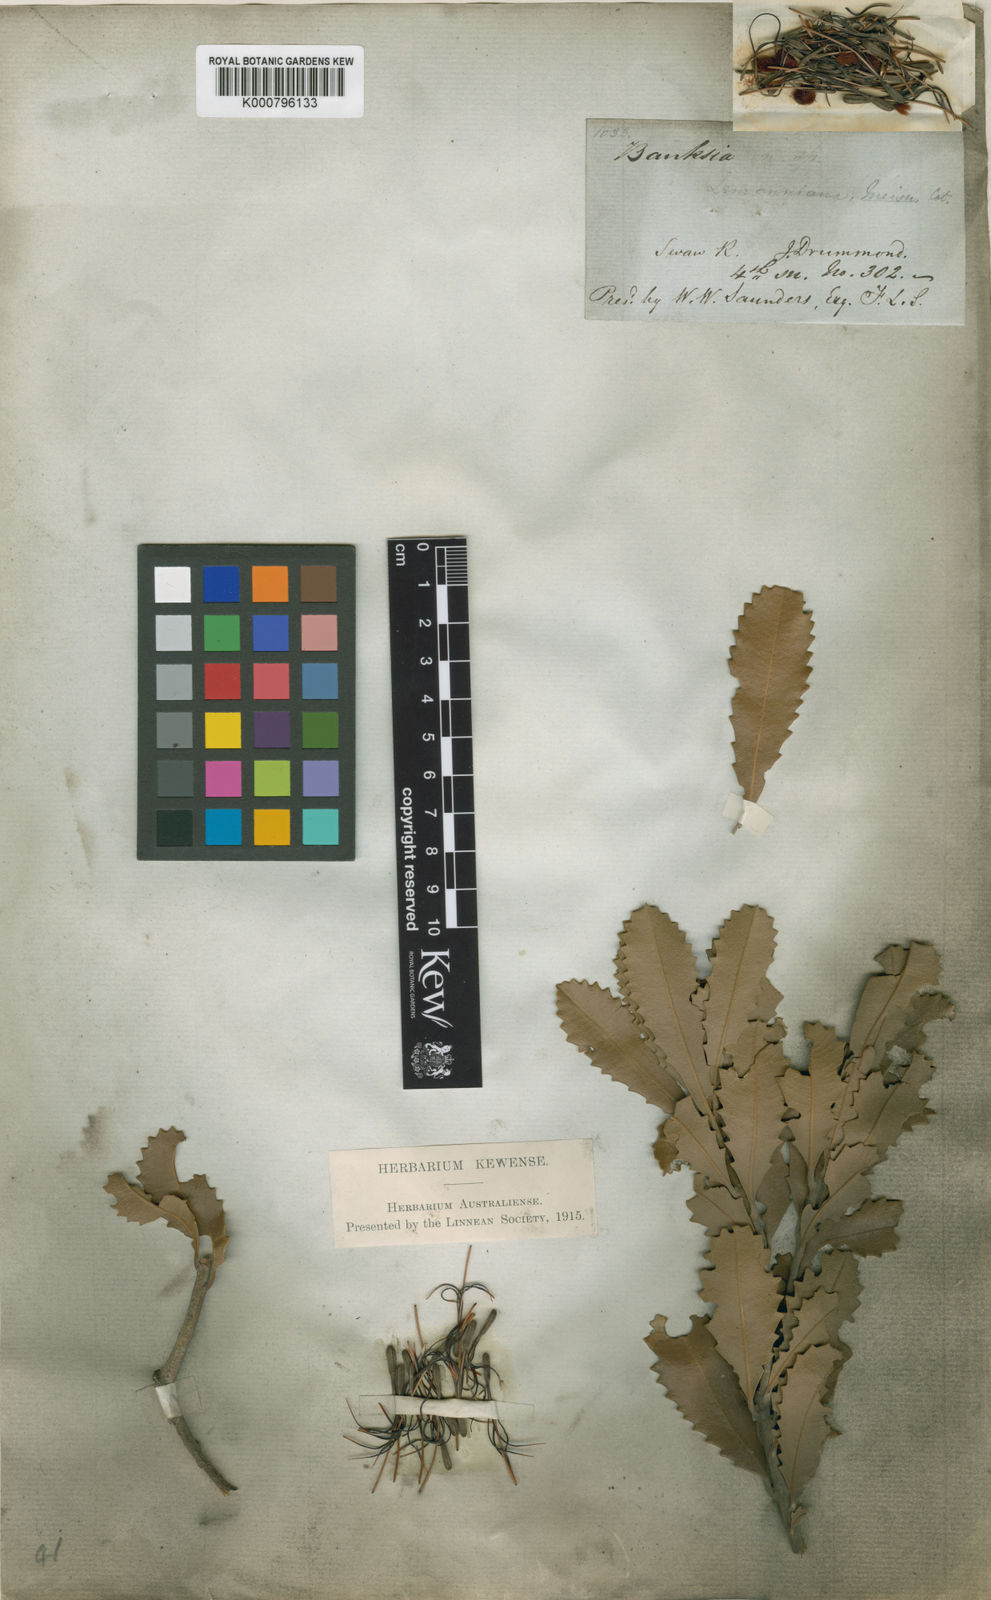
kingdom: Plantae
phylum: Tracheophyta
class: Magnoliopsida
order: Proteales
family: Proteaceae
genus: Banksia
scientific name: Banksia lemanniana
